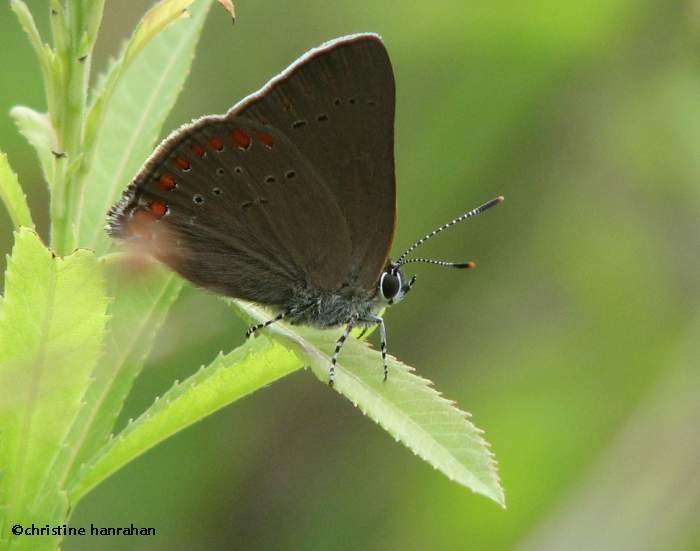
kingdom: Animalia
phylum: Arthropoda
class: Insecta
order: Lepidoptera
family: Lycaenidae
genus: Harkenclenus
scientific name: Harkenclenus titus
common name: Coral Hairstreak
